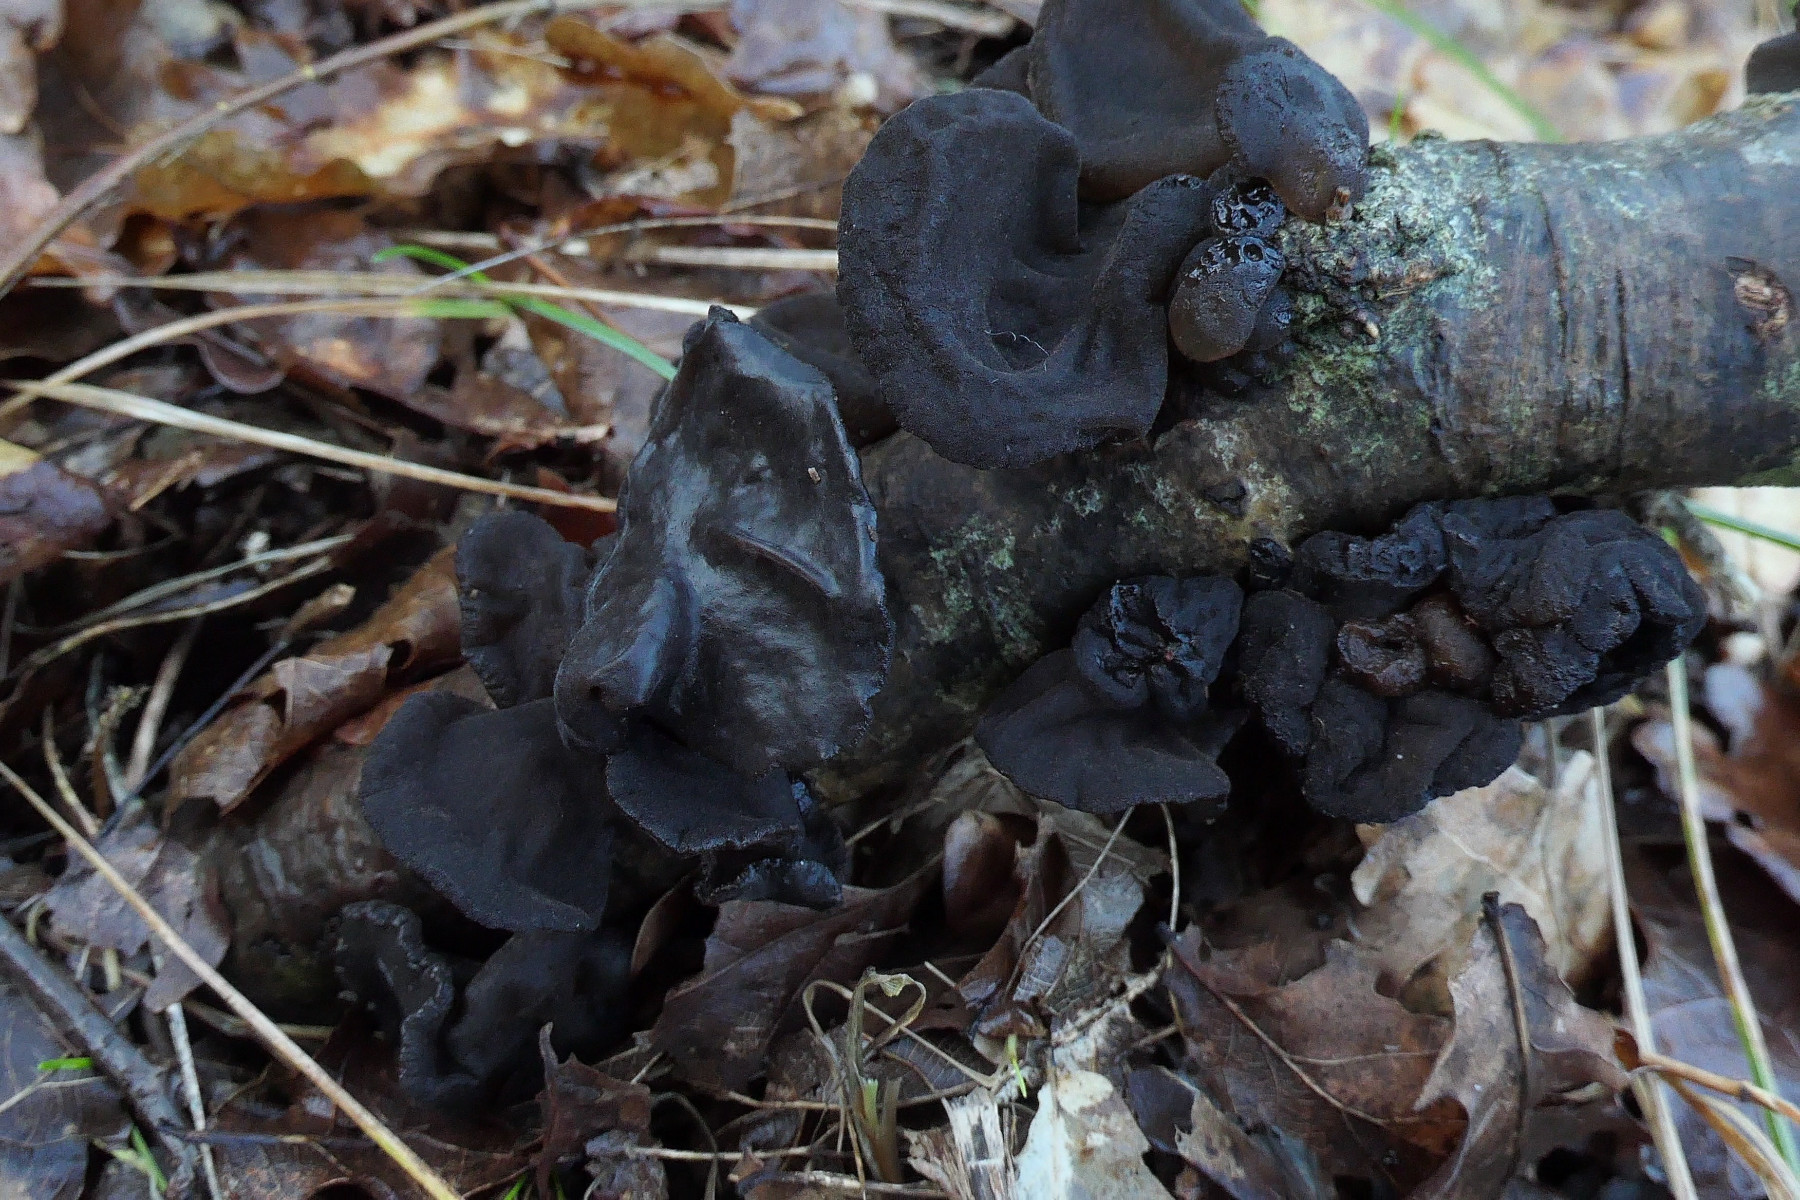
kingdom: Fungi
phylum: Basidiomycota
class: Agaricomycetes
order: Auriculariales
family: Auriculariaceae
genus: Exidia
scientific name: Exidia glandulosa
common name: ege-bævretop
